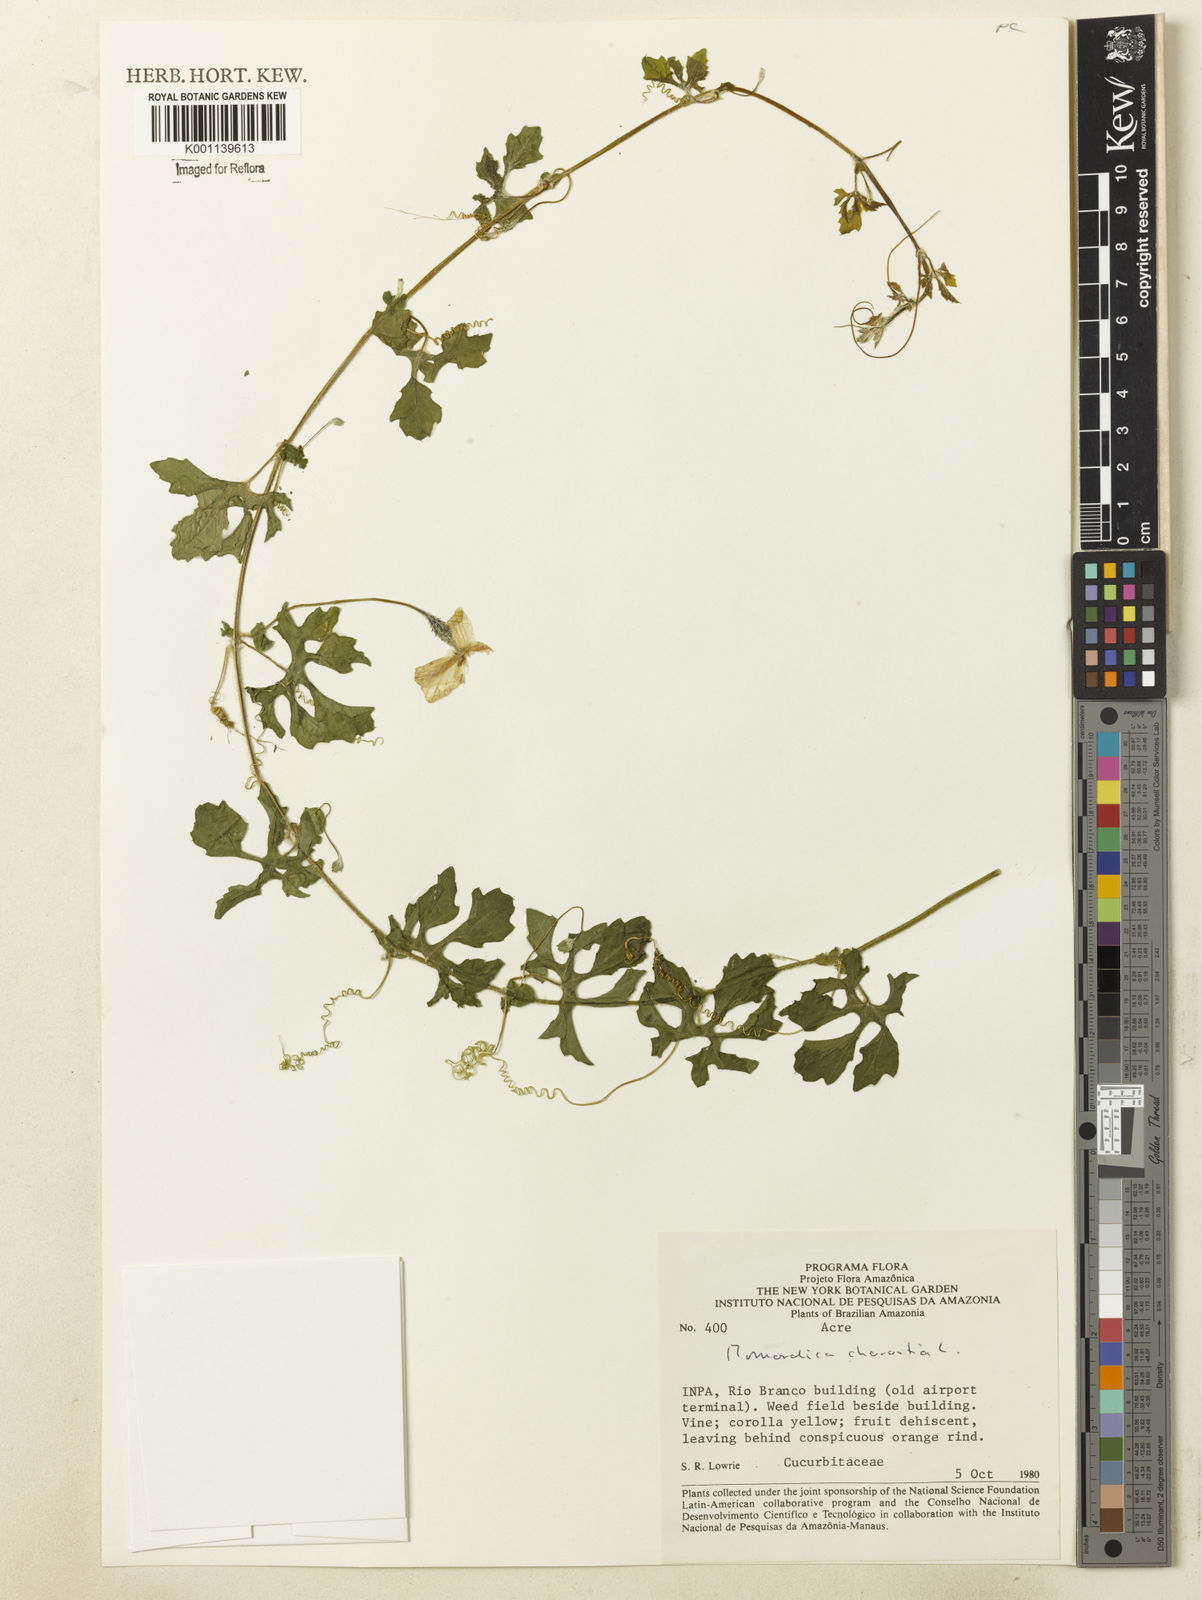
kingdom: Plantae
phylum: Tracheophyta
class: Magnoliopsida
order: Cucurbitales
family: Cucurbitaceae
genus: Momordica
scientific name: Momordica charantia
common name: Balsampear
